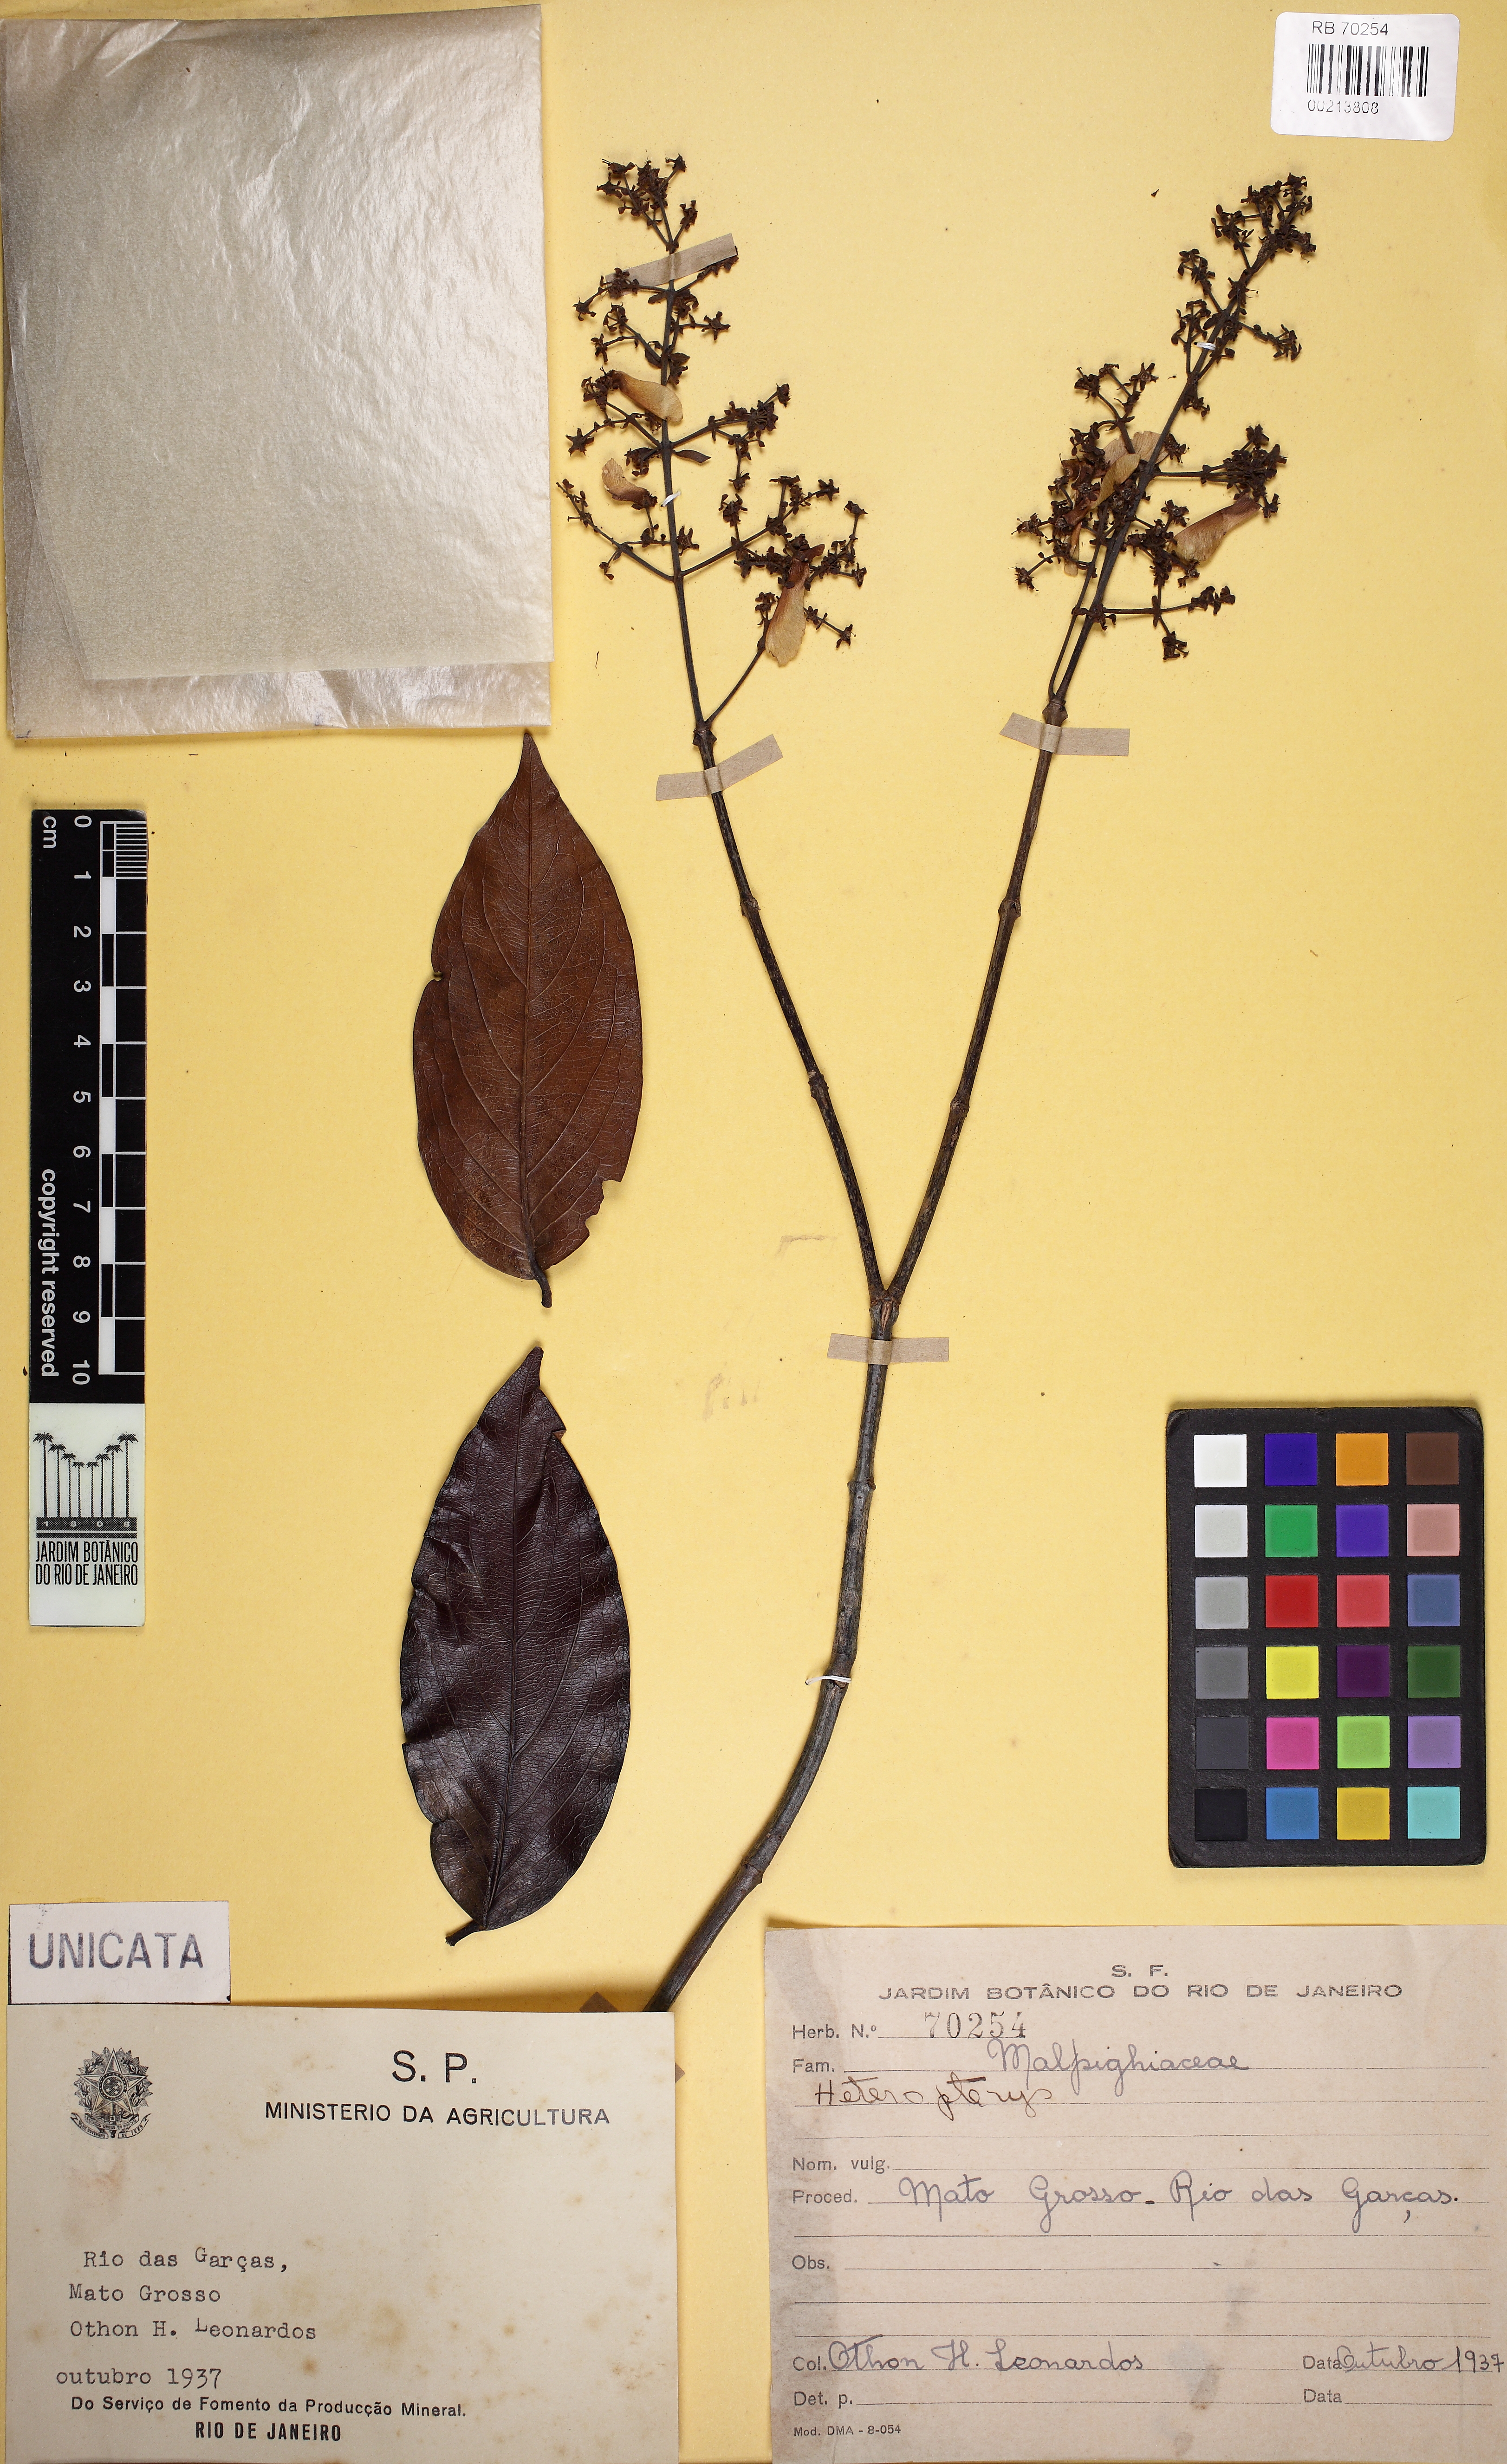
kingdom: Plantae
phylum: Tracheophyta
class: Magnoliopsida
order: Malpighiales
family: Malpighiaceae
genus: Heteropterys
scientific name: Heteropterys
